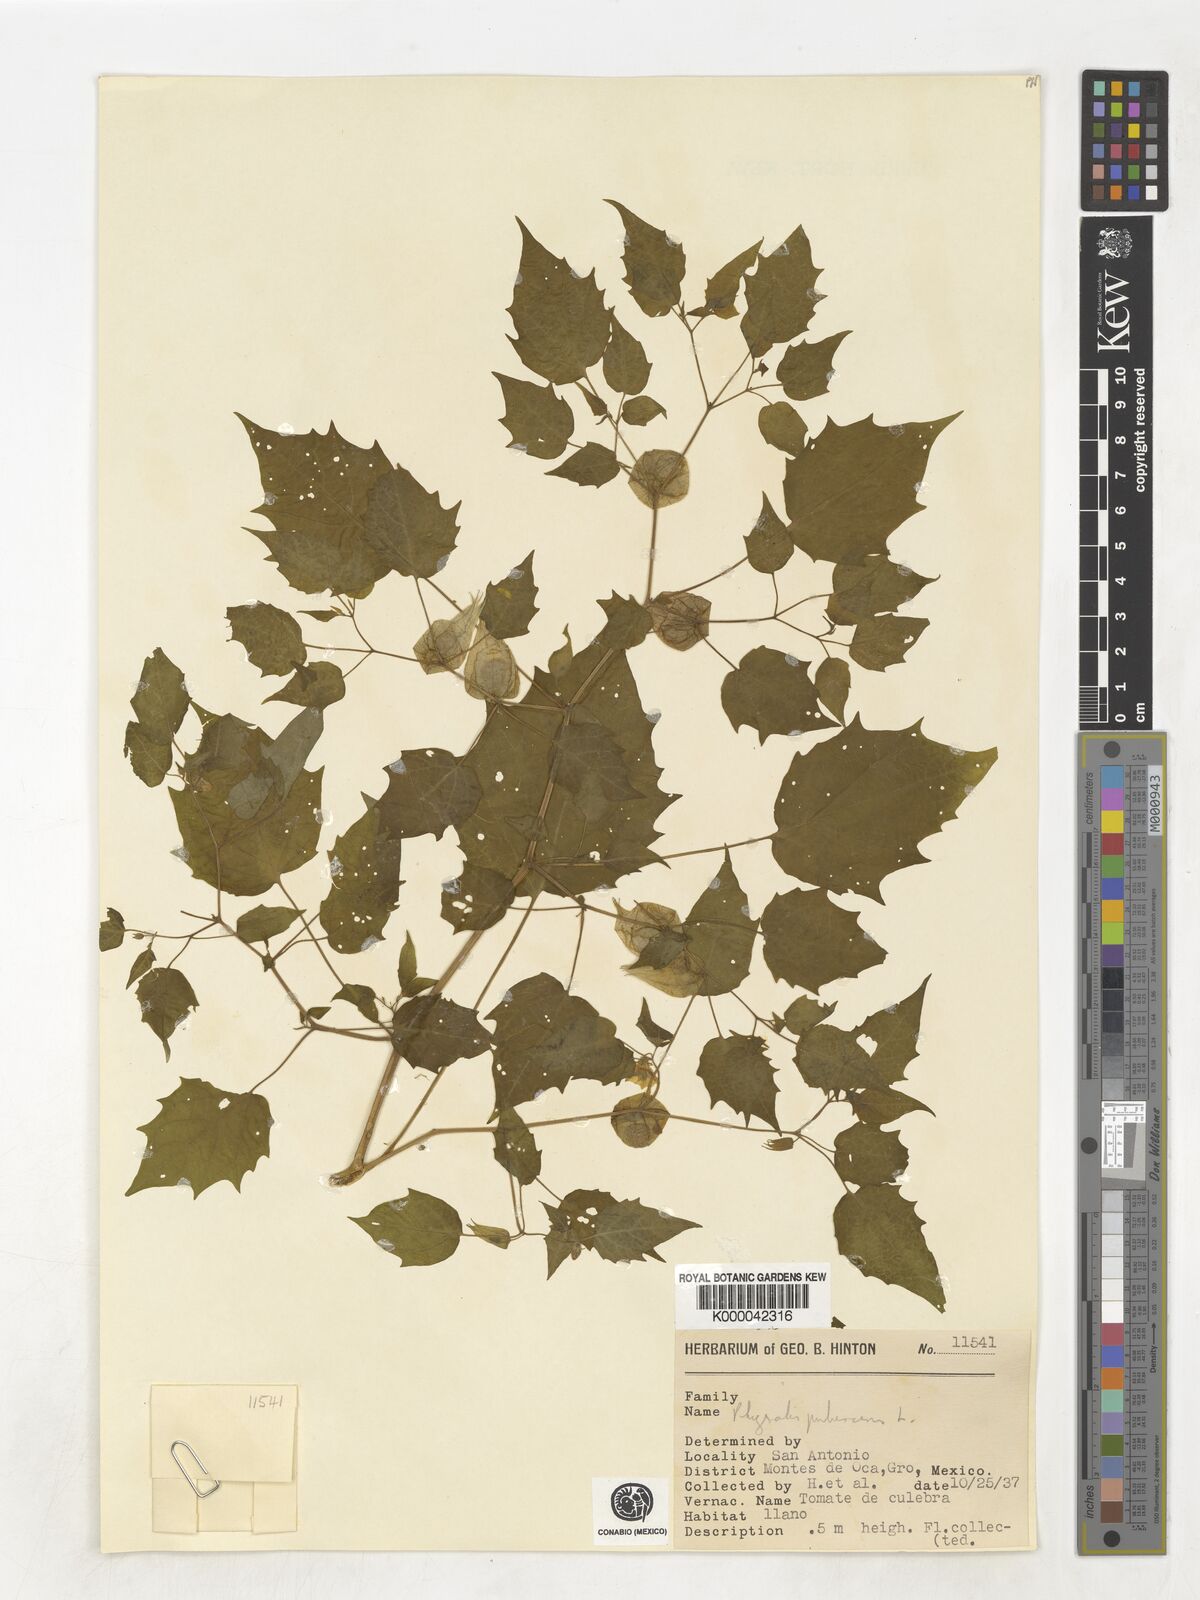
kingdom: Plantae
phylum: Tracheophyta
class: Magnoliopsida
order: Solanales
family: Solanaceae
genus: Physalis
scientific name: Physalis pubescens
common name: Downy ground-cherry
